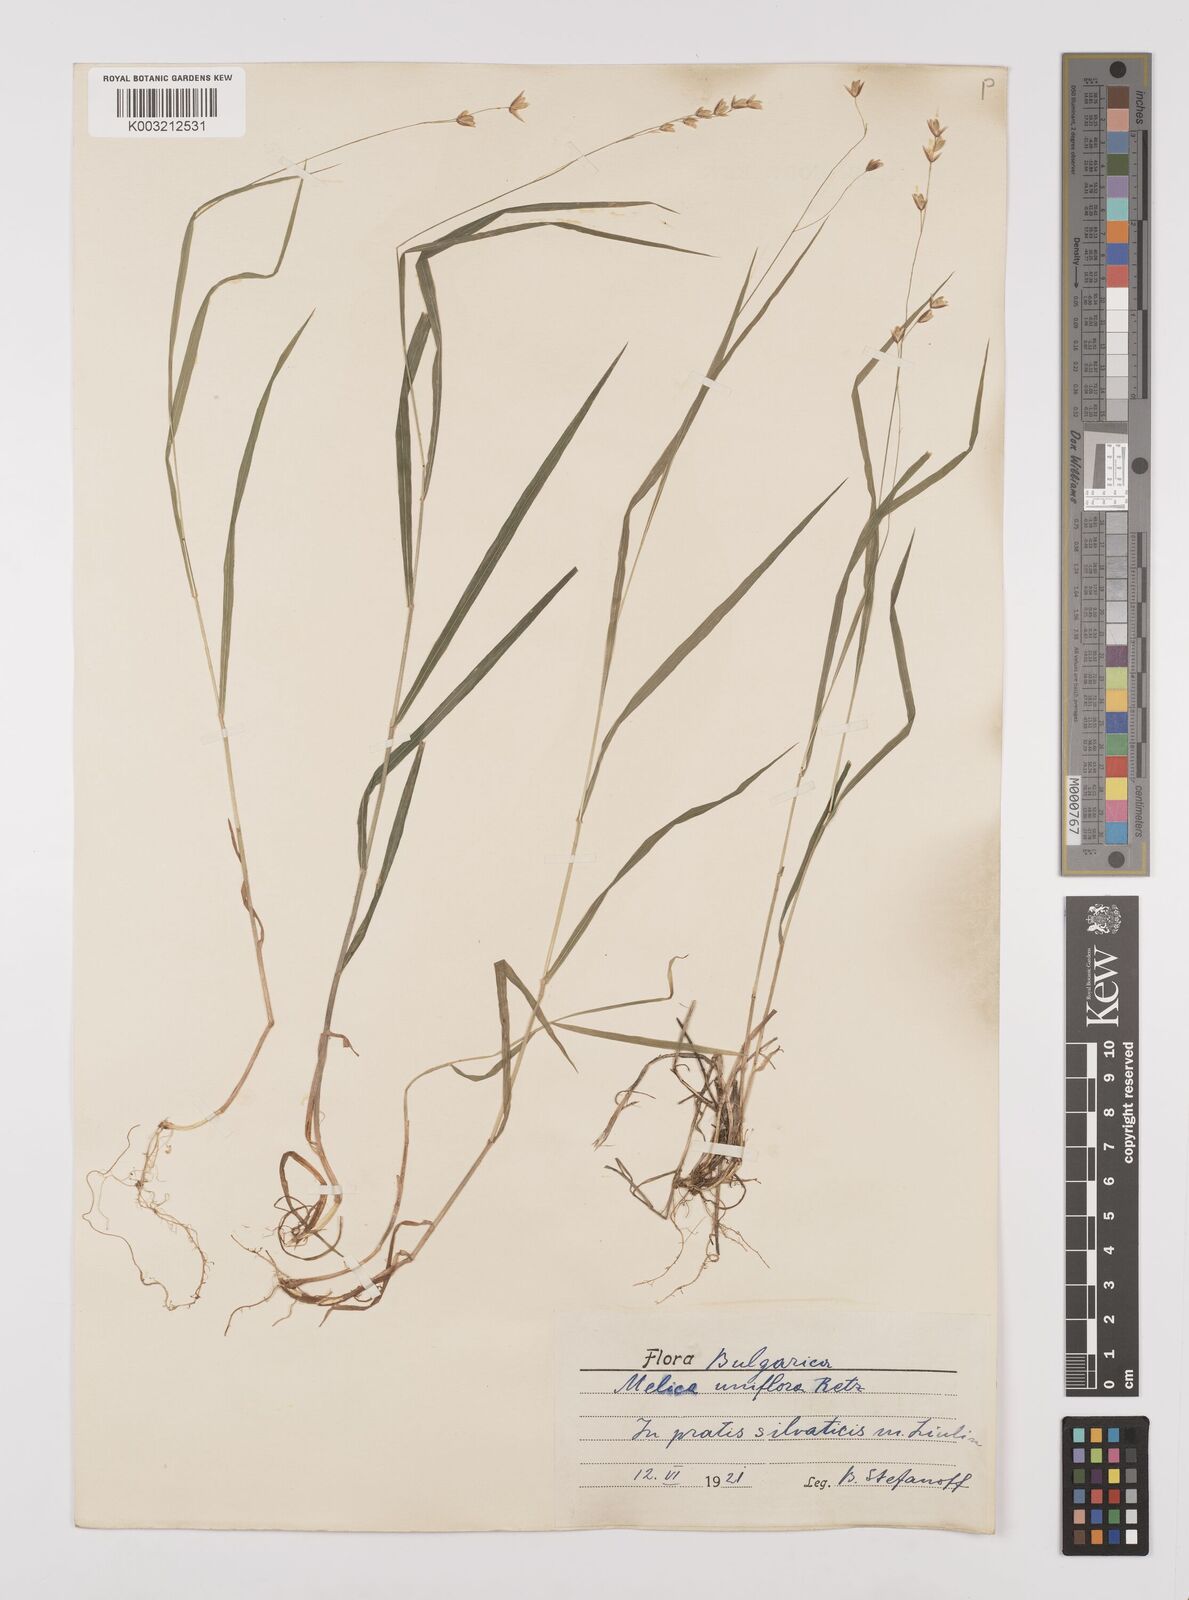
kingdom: Plantae
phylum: Tracheophyta
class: Liliopsida
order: Poales
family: Poaceae
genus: Melica
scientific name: Melica uniflora
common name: Wood melick
